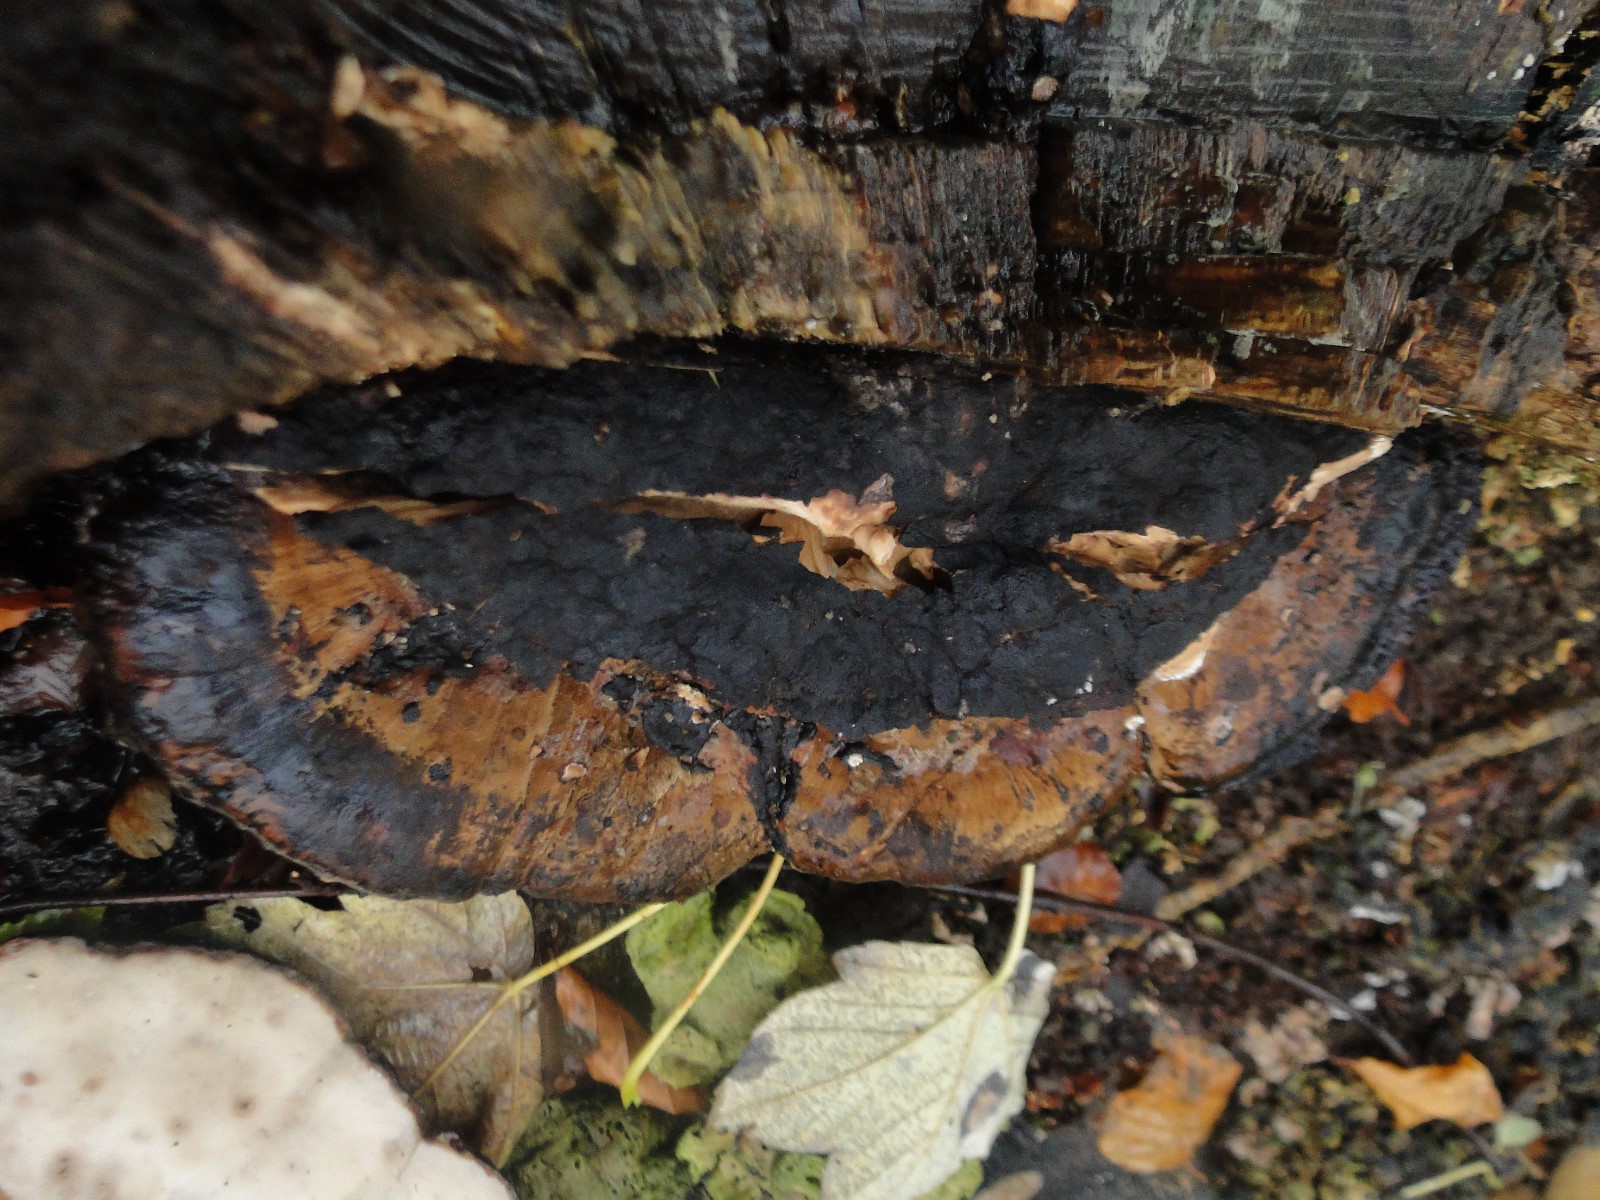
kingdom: Fungi
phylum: Basidiomycota
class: Agaricomycetes
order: Polyporales
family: Ischnodermataceae
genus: Ischnoderma
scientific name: Ischnoderma resinosum
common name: løv-tjæreporesvamp
